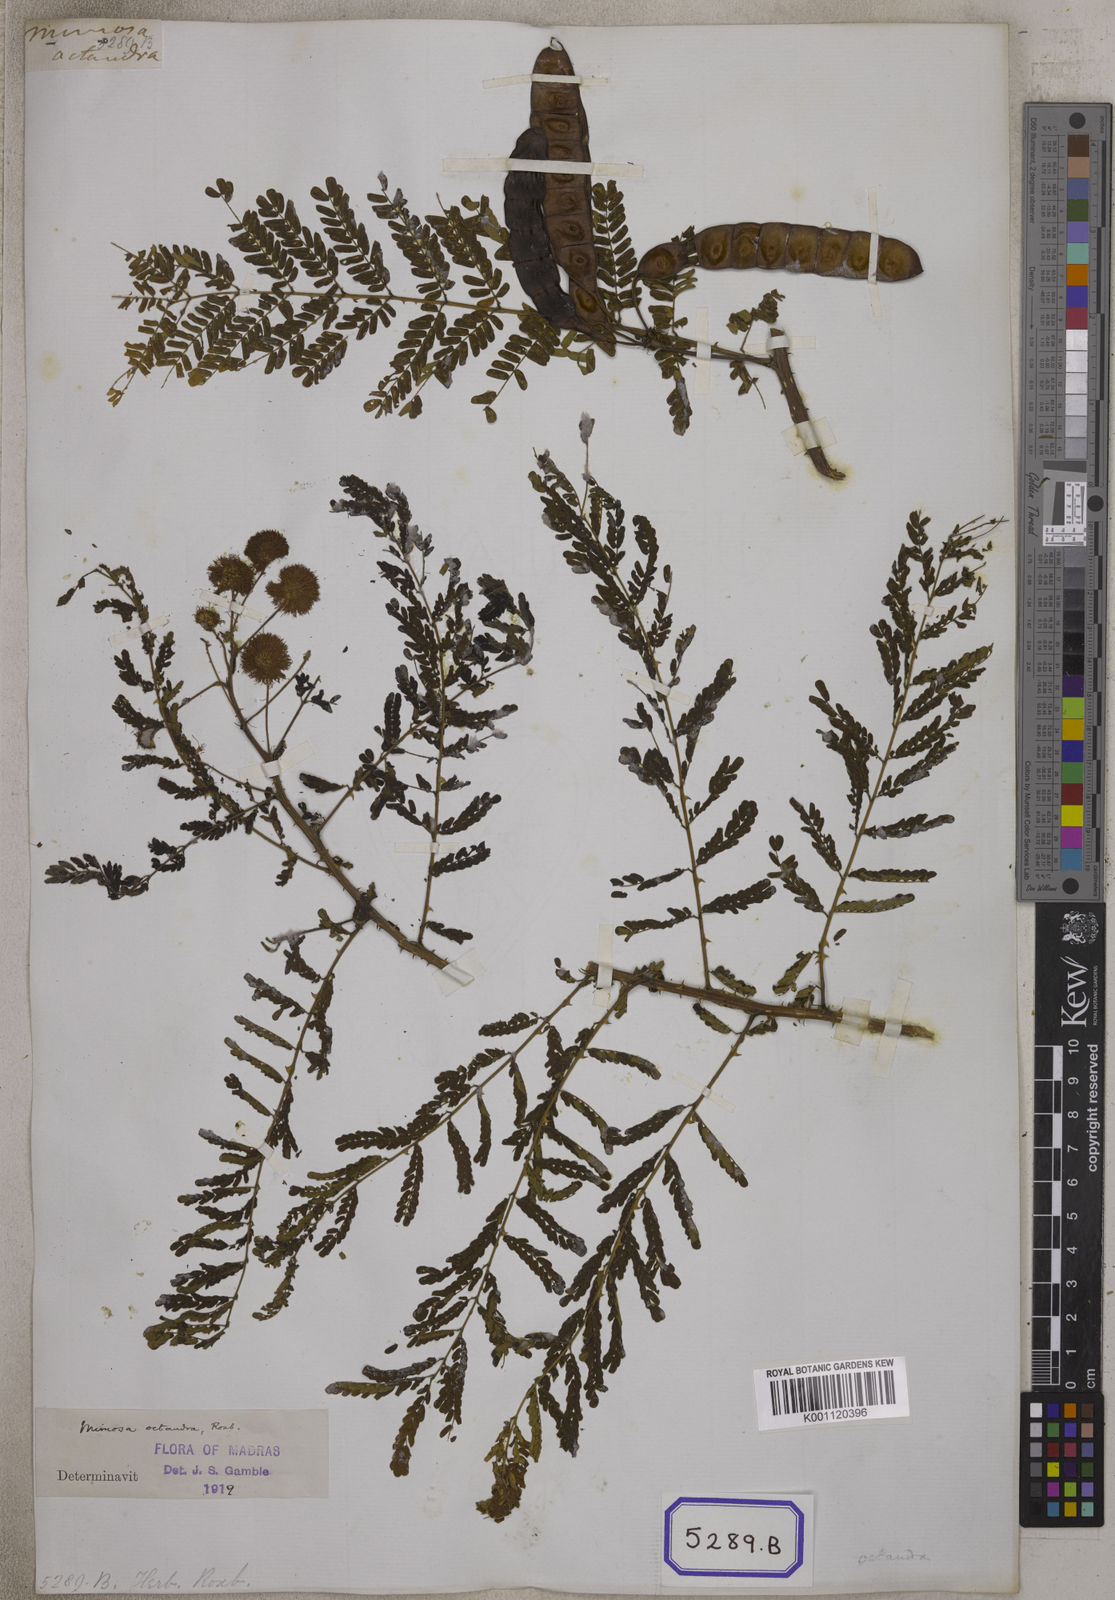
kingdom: Plantae
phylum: Tracheophyta
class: Magnoliopsida
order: Fabales
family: Fabaceae
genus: Mimosa
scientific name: Mimosa rubicaulis
